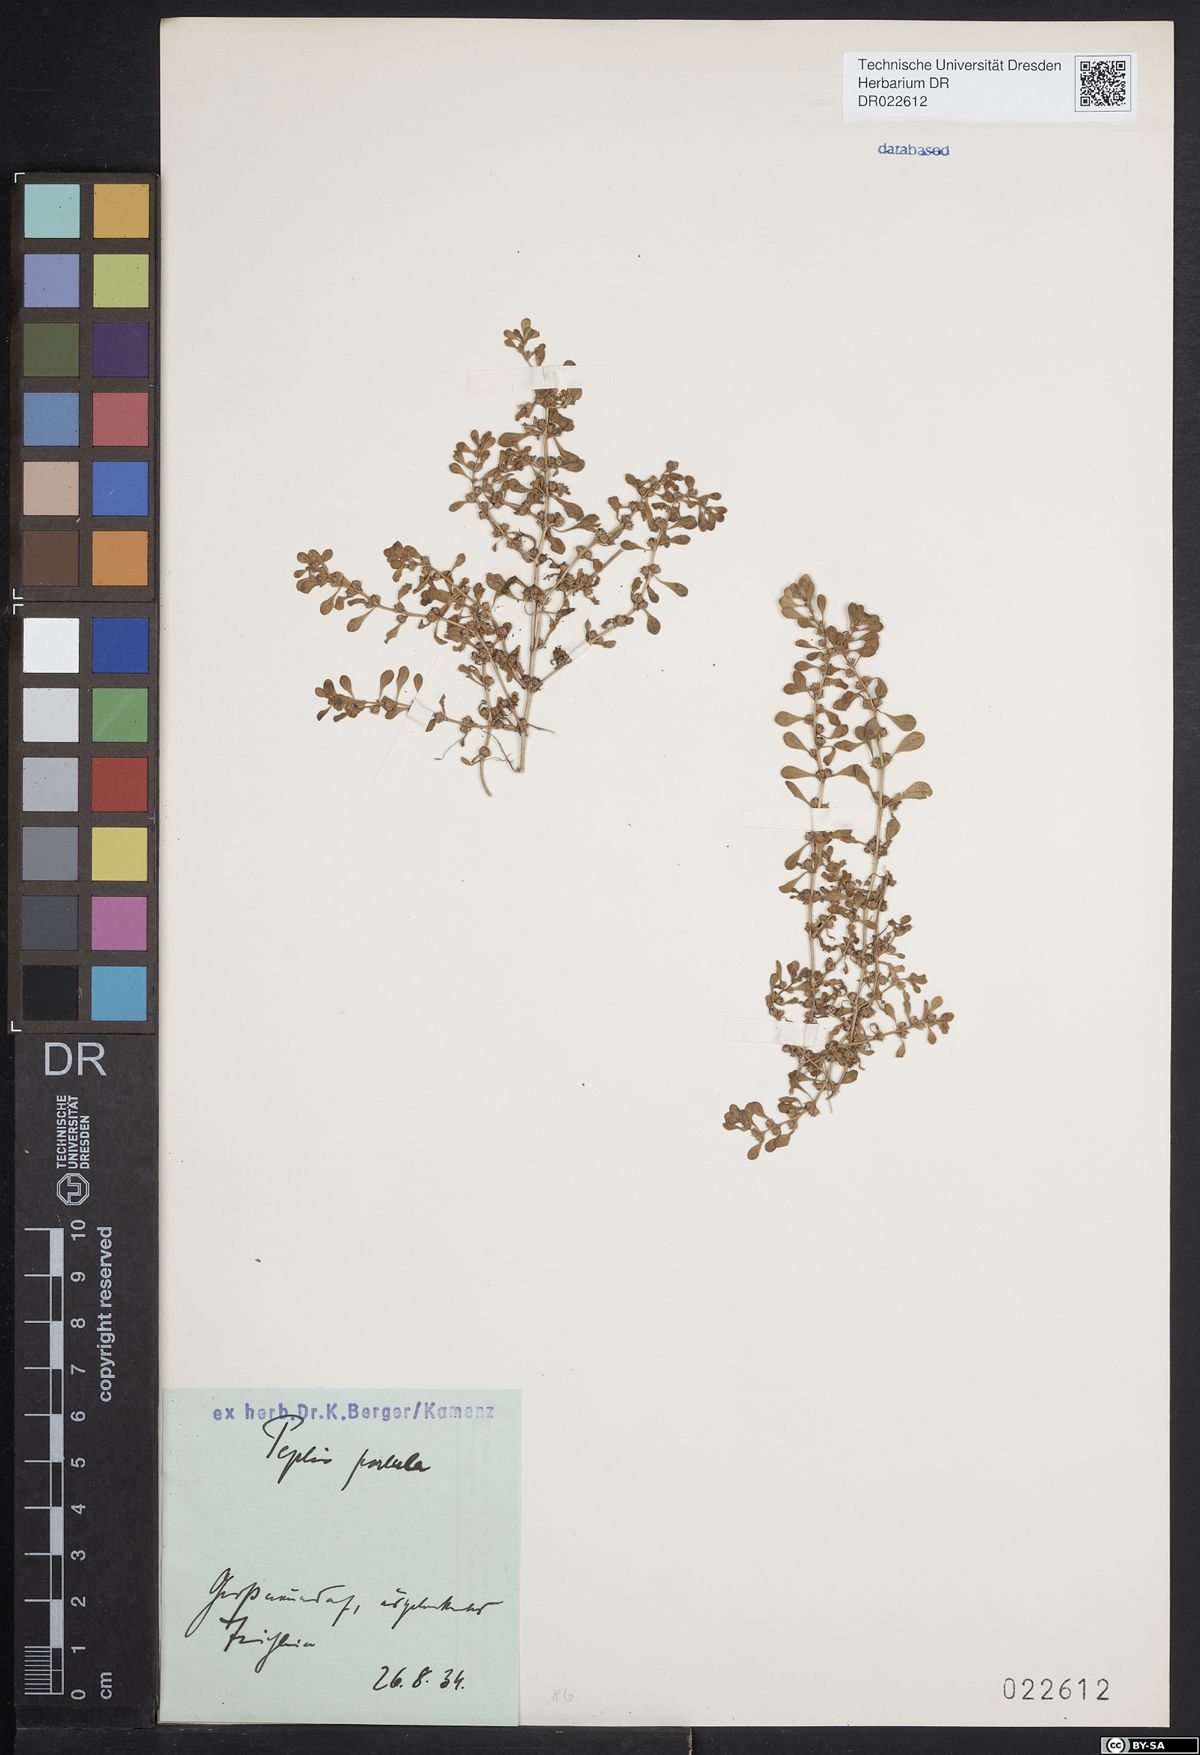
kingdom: Plantae
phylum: Tracheophyta
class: Magnoliopsida
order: Myrtales
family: Lythraceae
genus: Lythrum
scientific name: Lythrum portula
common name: Water purslane
